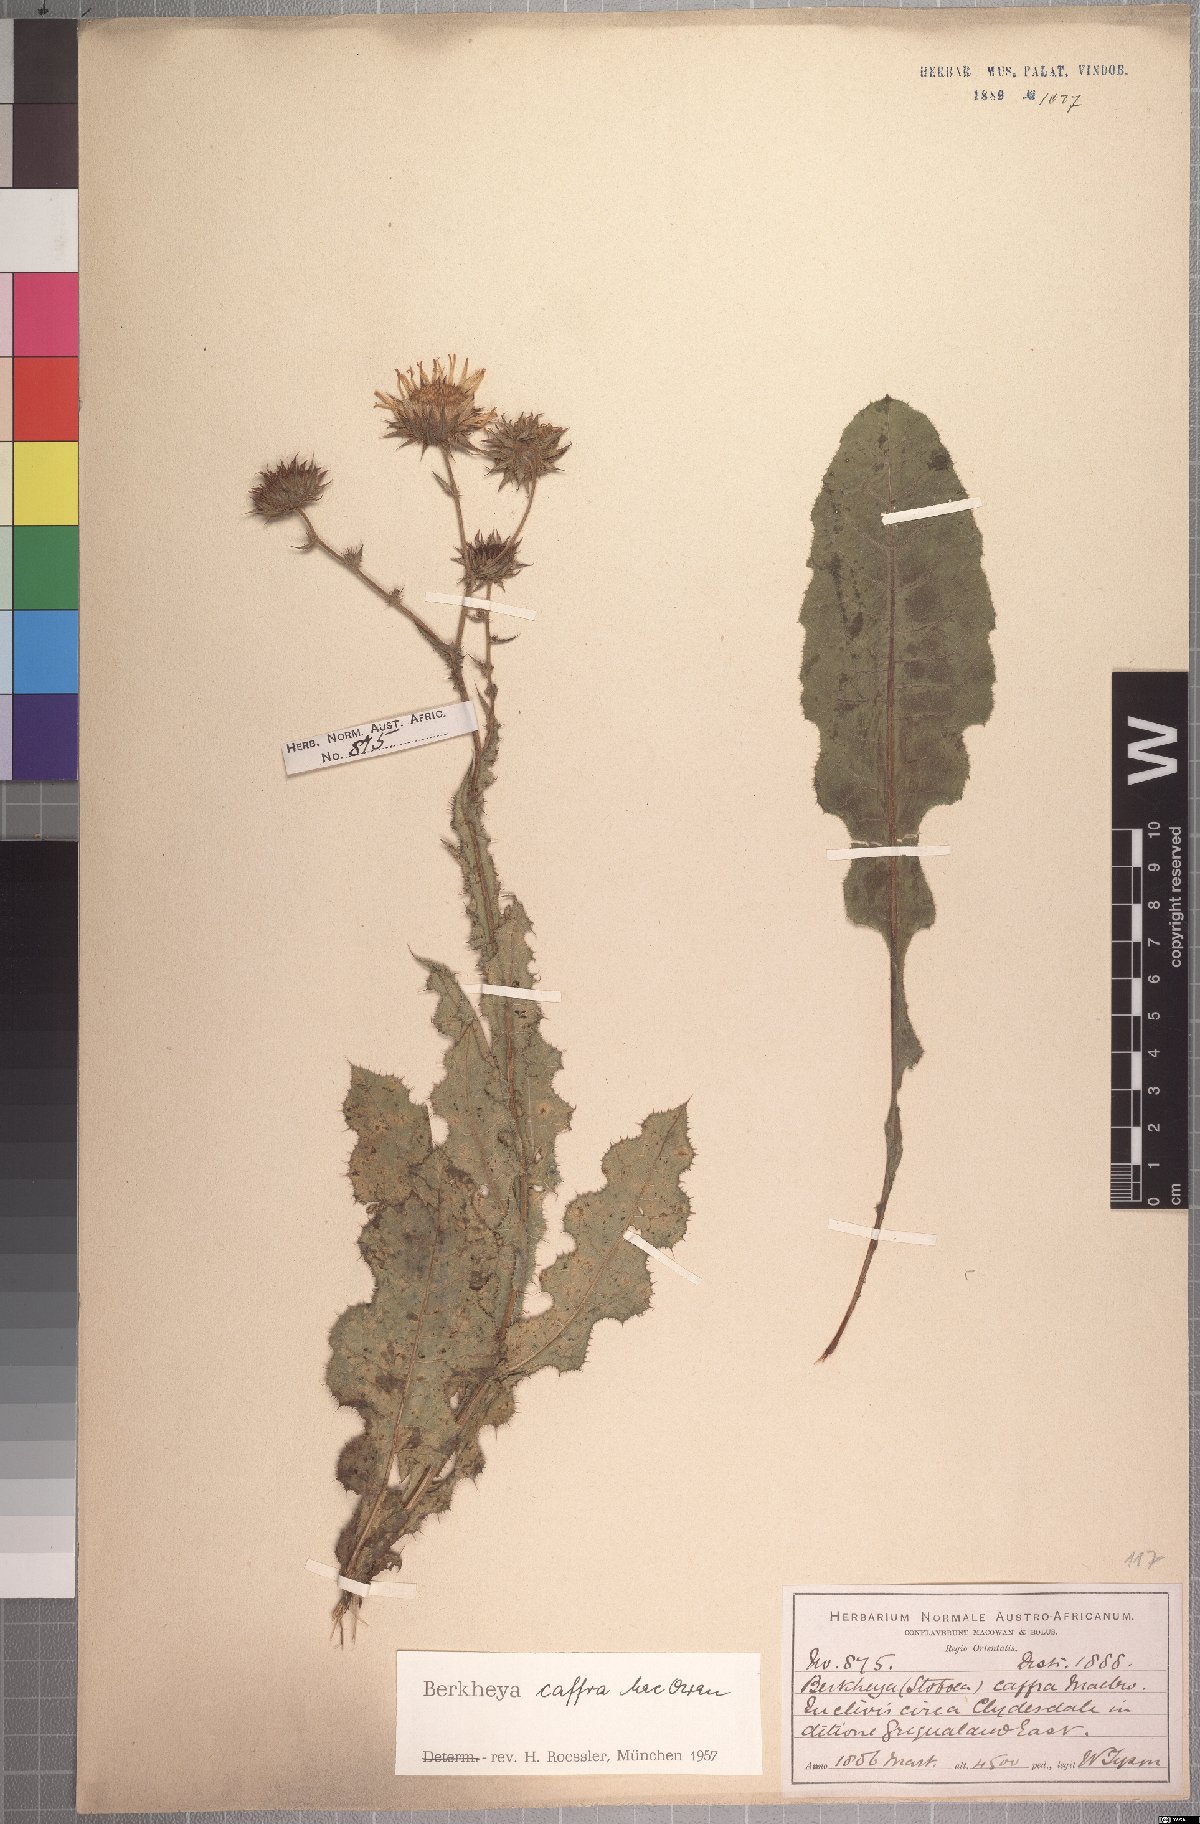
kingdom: Plantae
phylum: Tracheophyta
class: Magnoliopsida
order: Asterales
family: Asteraceae
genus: Berkheya
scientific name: Berkheya caffra
